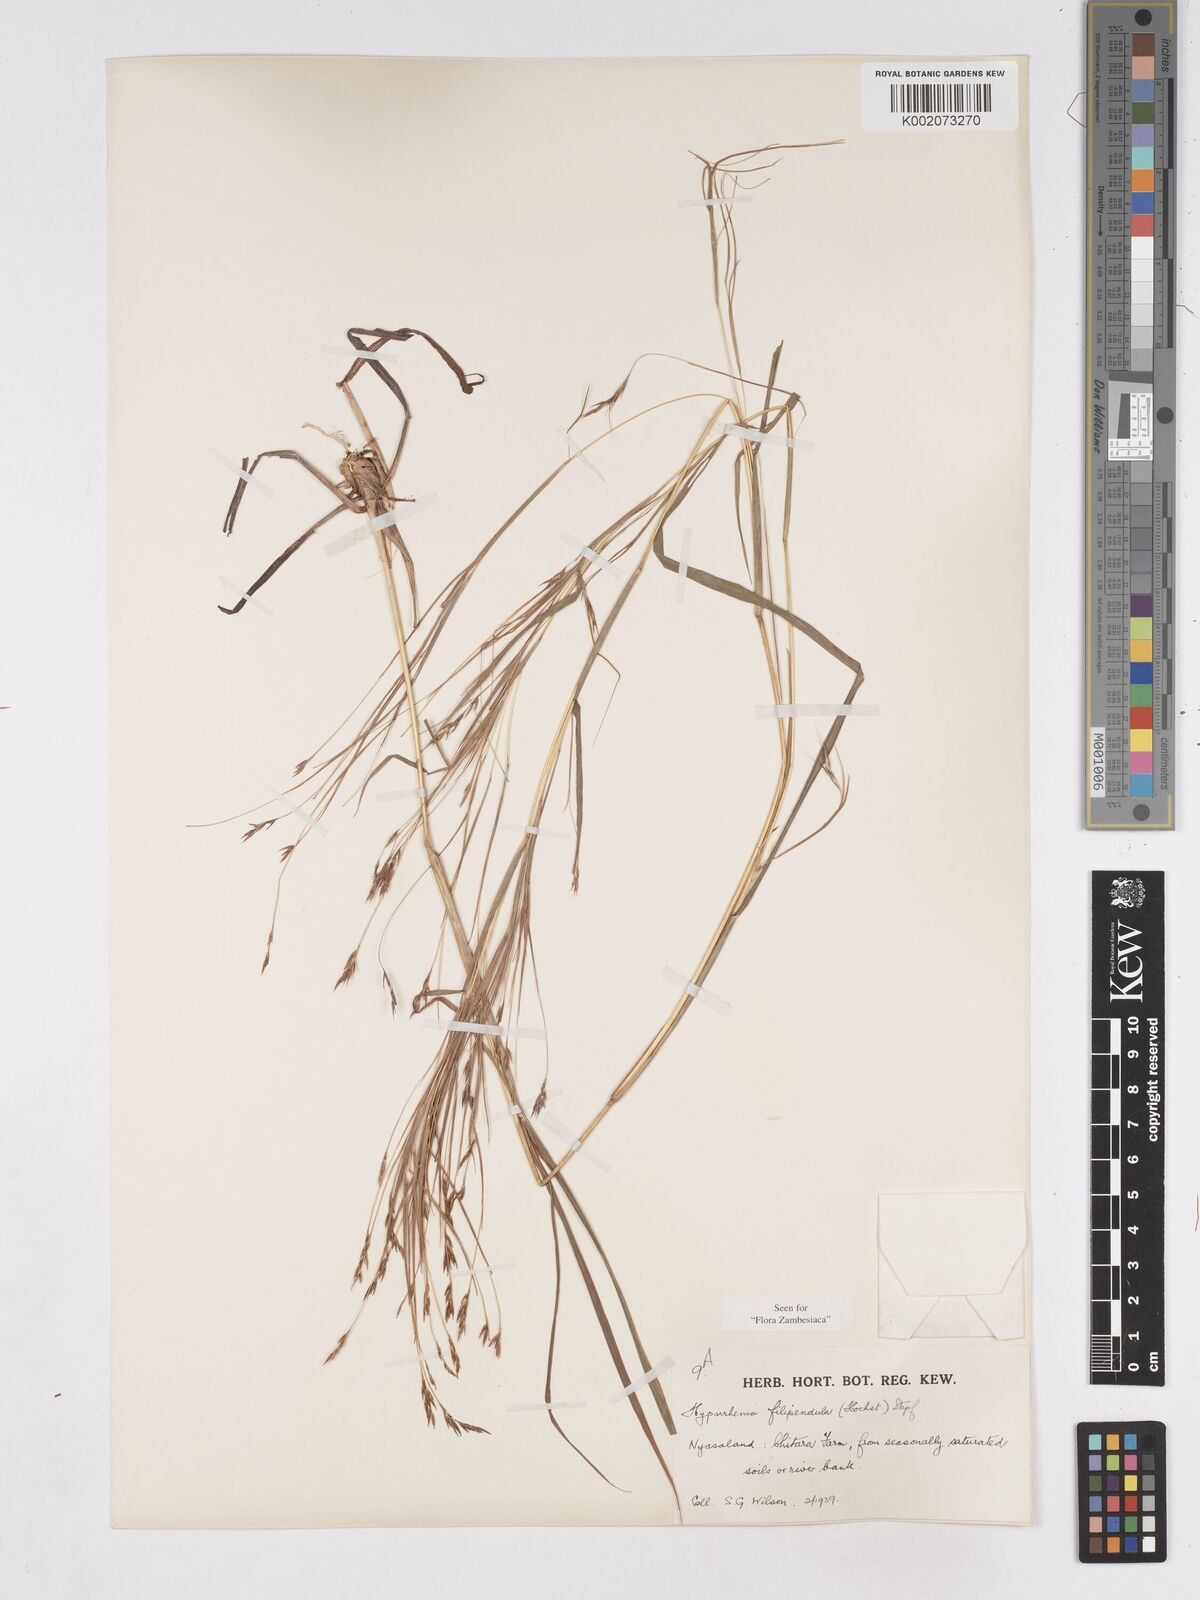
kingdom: Plantae
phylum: Tracheophyta
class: Liliopsida
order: Poales
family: Poaceae
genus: Hyparrhenia
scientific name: Hyparrhenia filipendula
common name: Tambookie grass
